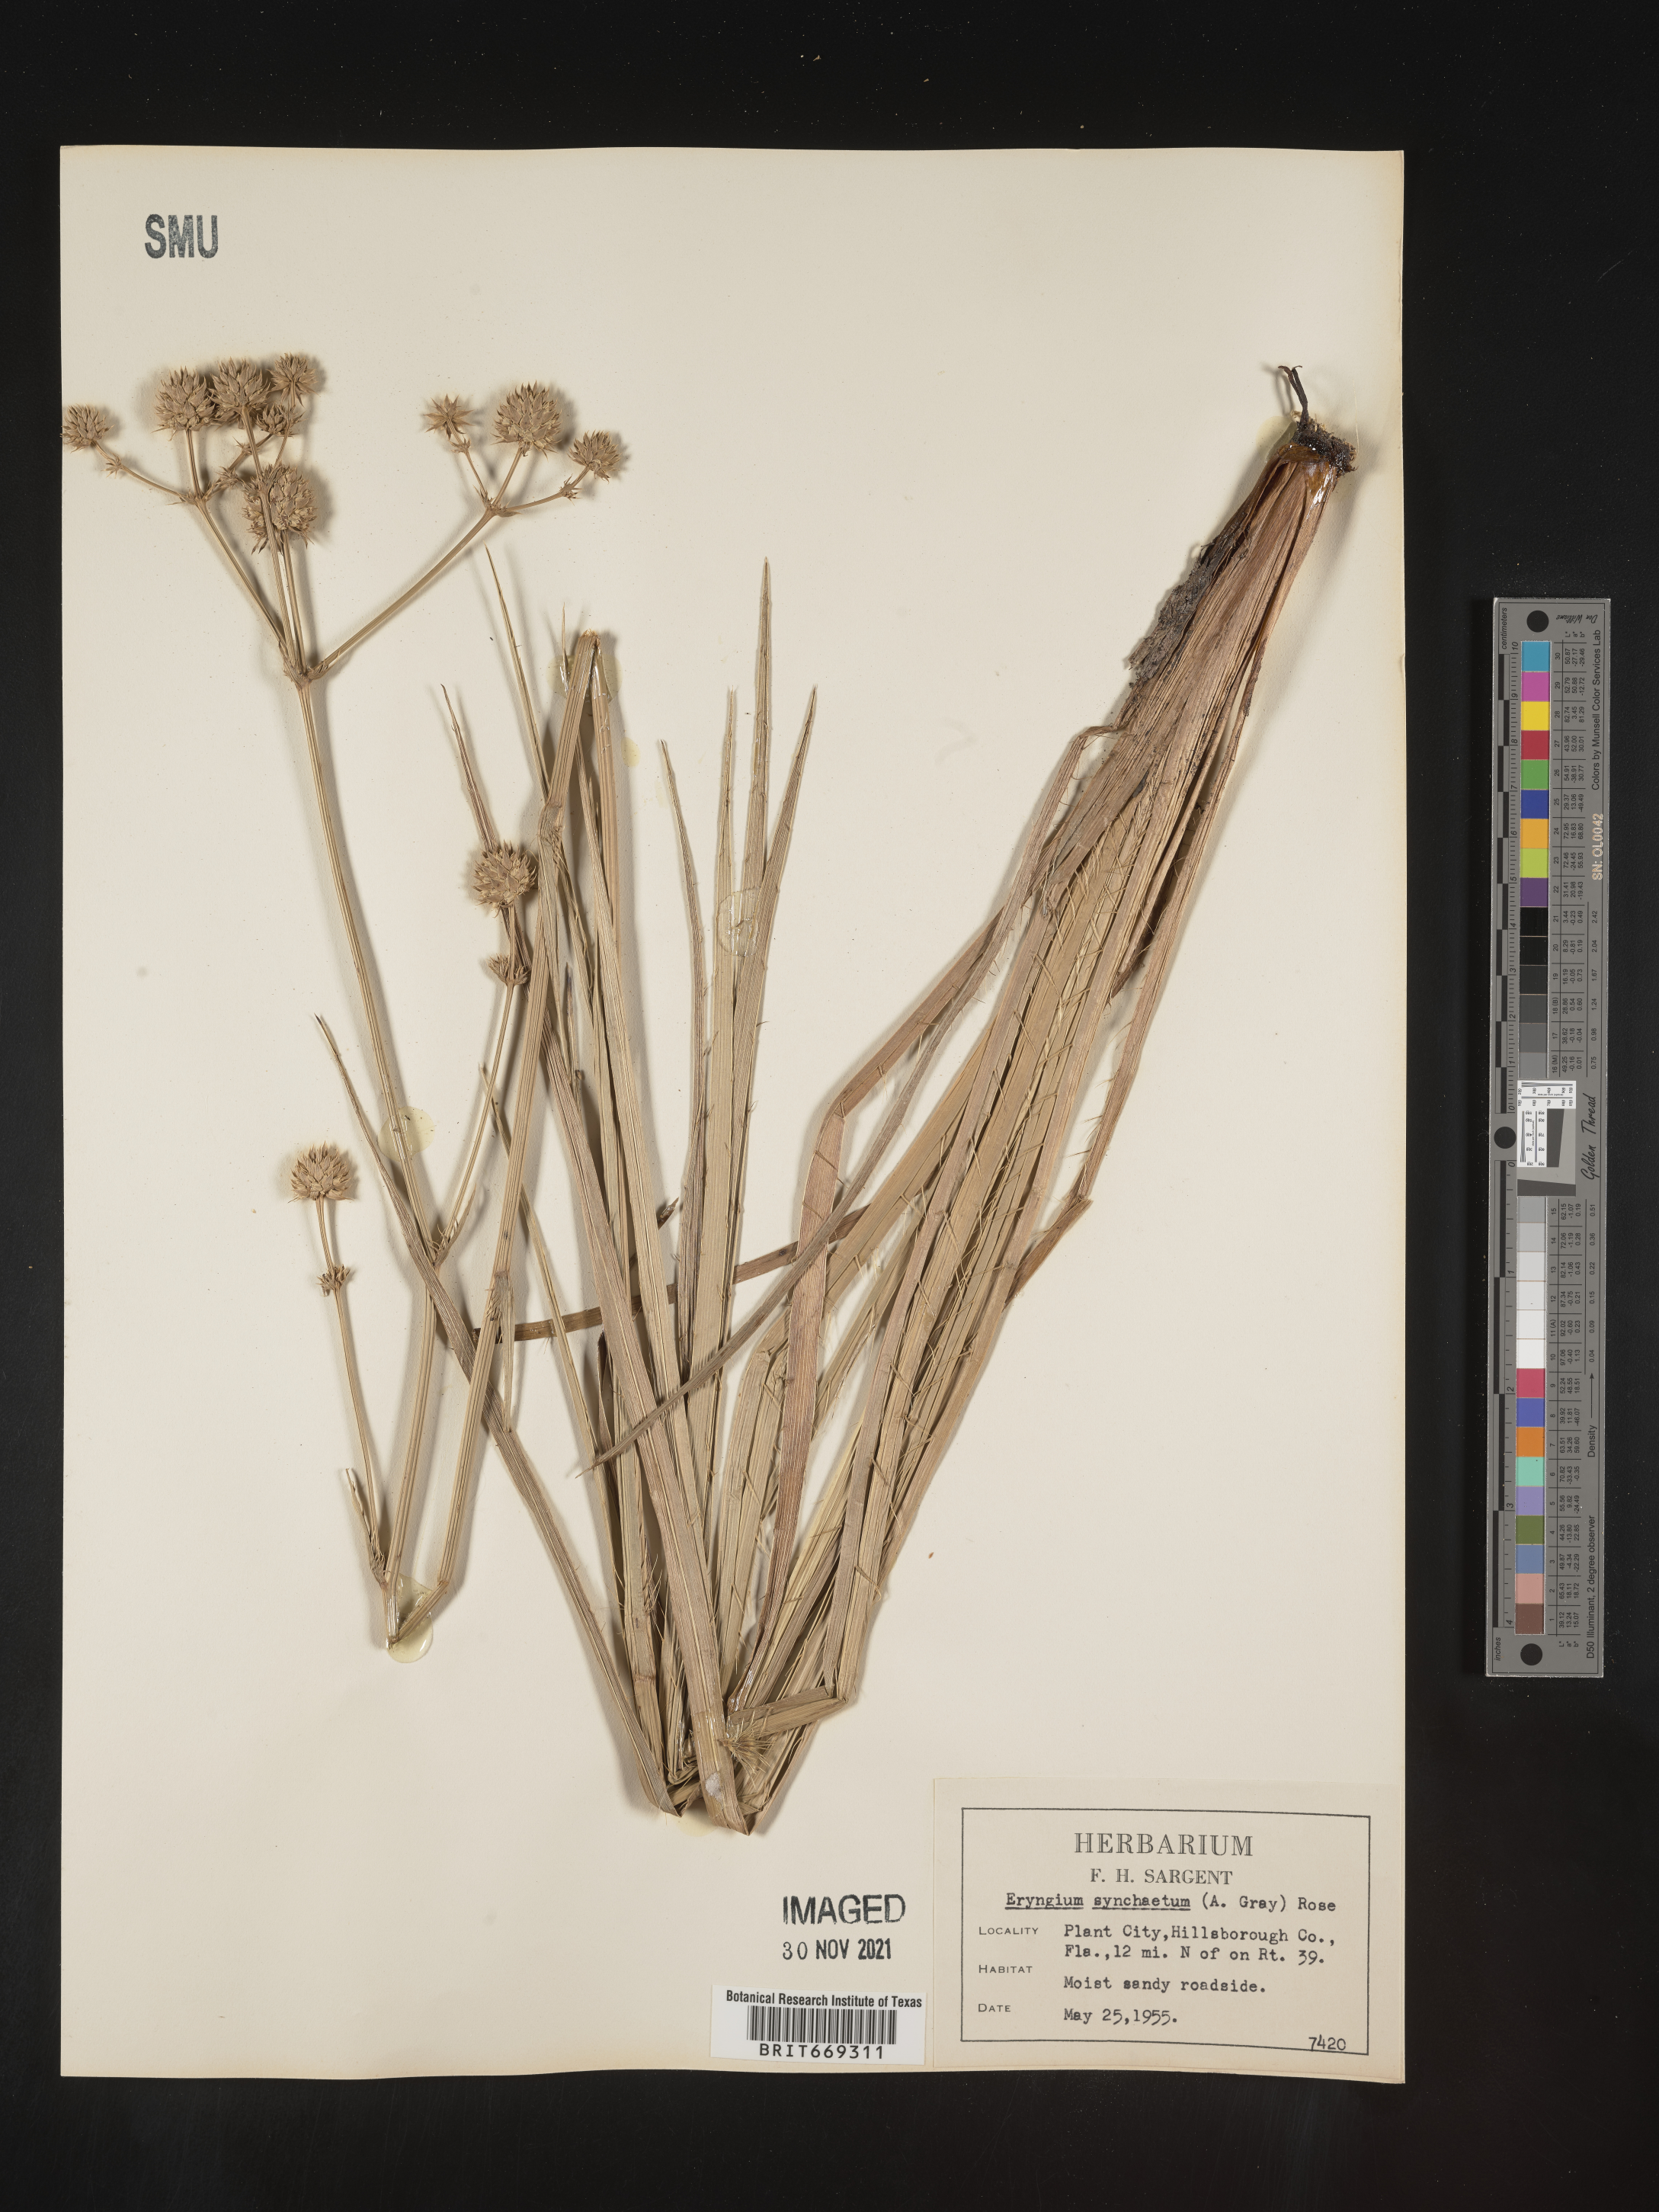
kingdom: Plantae
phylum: Tracheophyta
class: Magnoliopsida
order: Apiales
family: Apiaceae
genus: Eryngium
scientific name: Eryngium
